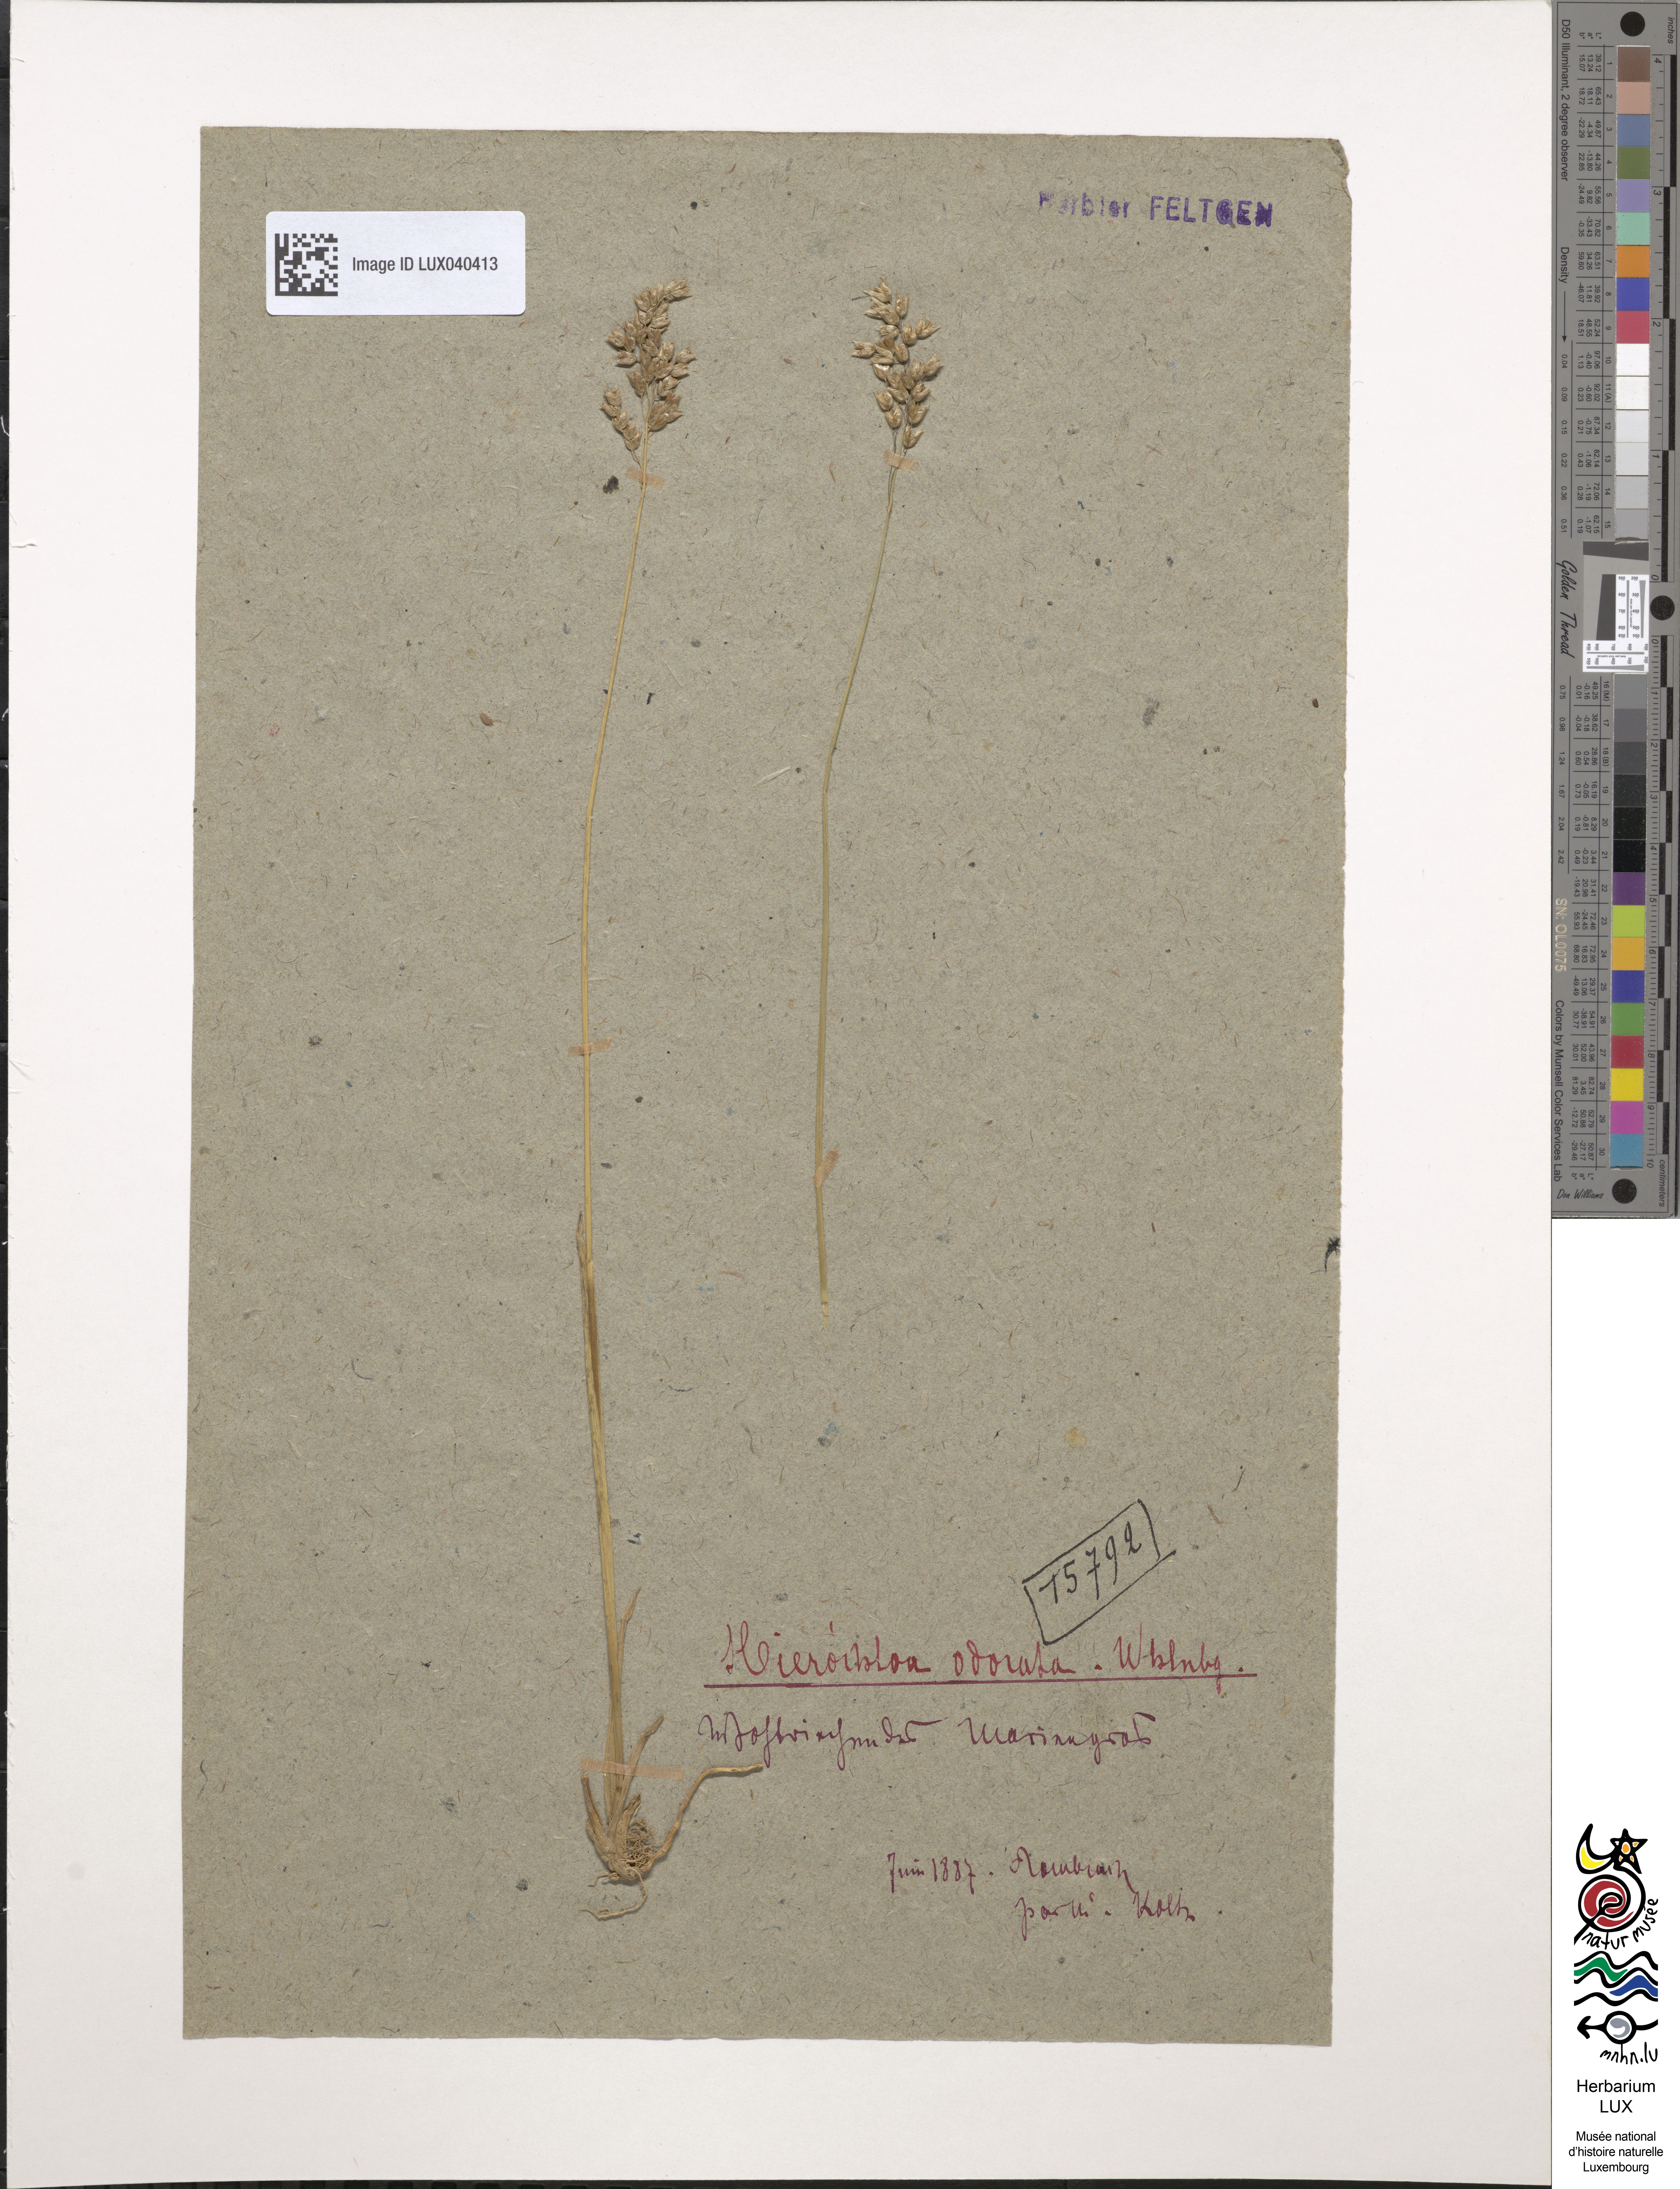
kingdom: Plantae
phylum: Tracheophyta
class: Liliopsida
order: Poales
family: Poaceae
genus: Anthoxanthum
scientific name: Anthoxanthum nitens
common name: Holy grass
